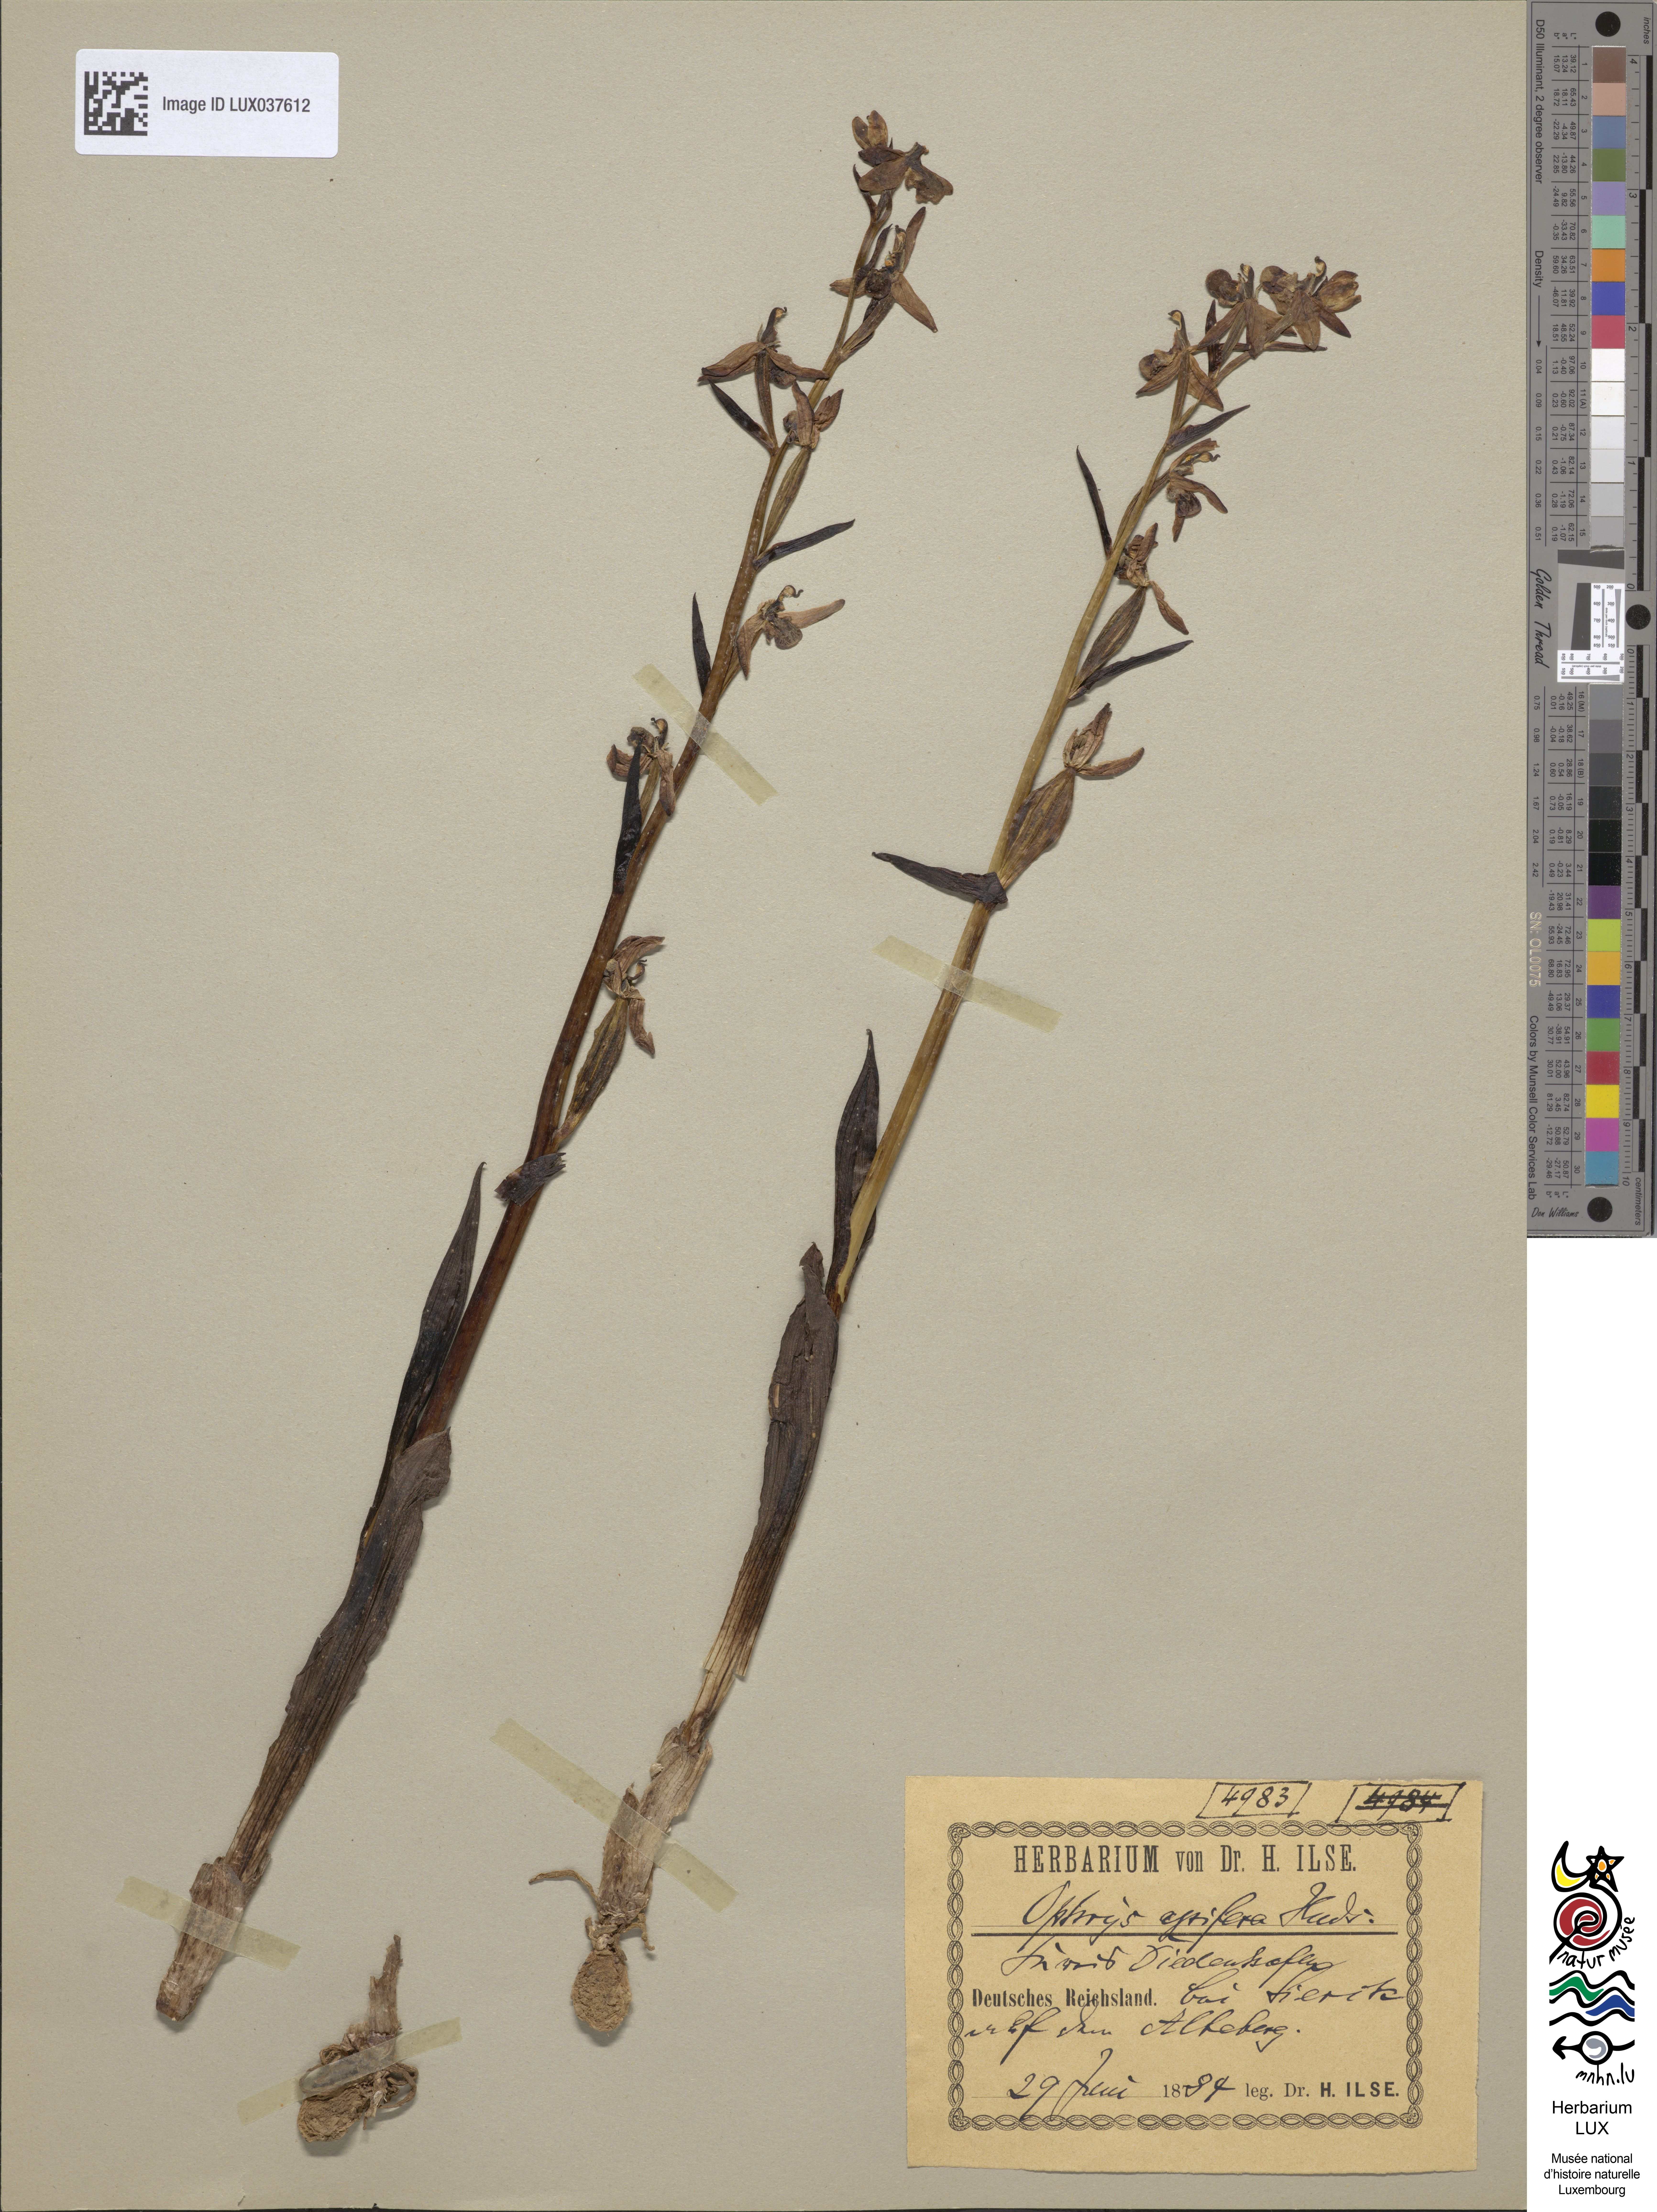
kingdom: Plantae
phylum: Tracheophyta
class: Liliopsida
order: Asparagales
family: Orchidaceae
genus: Ophrys
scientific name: Ophrys apifera
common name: Bee orchid
